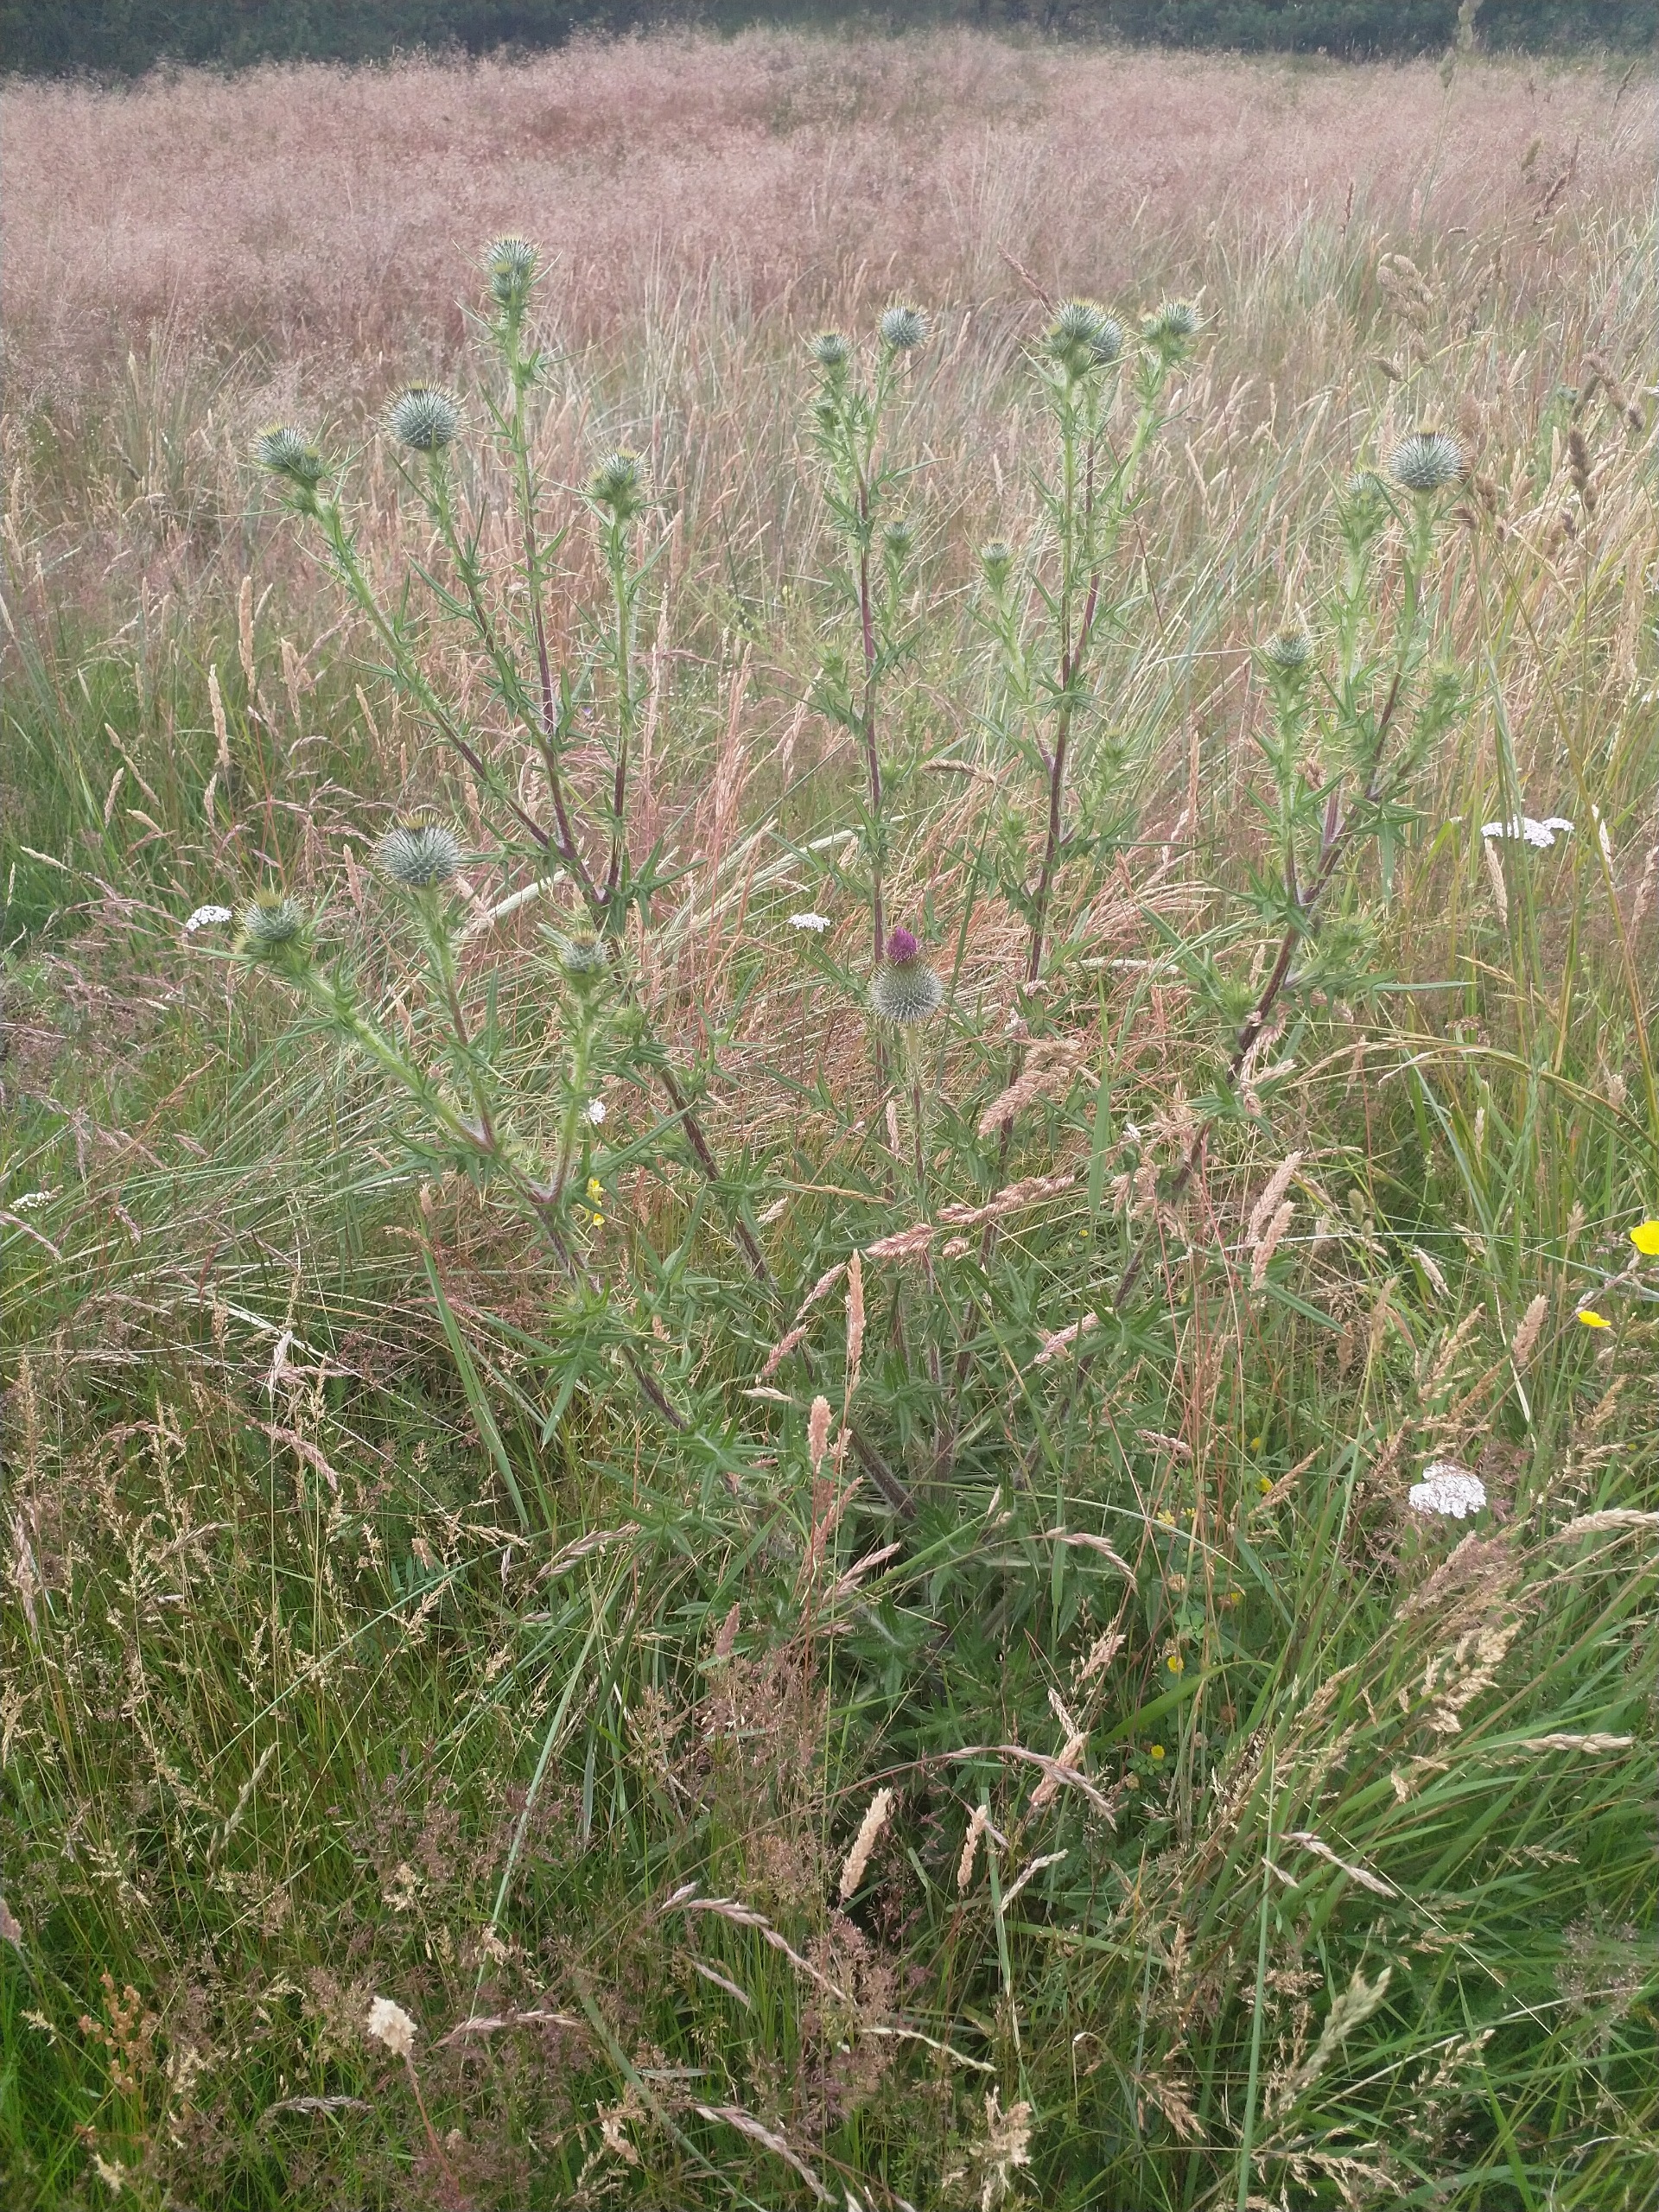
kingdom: Plantae
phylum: Tracheophyta
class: Magnoliopsida
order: Asterales
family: Asteraceae
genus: Cirsium
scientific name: Cirsium vulgare
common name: Horse-tidsel
